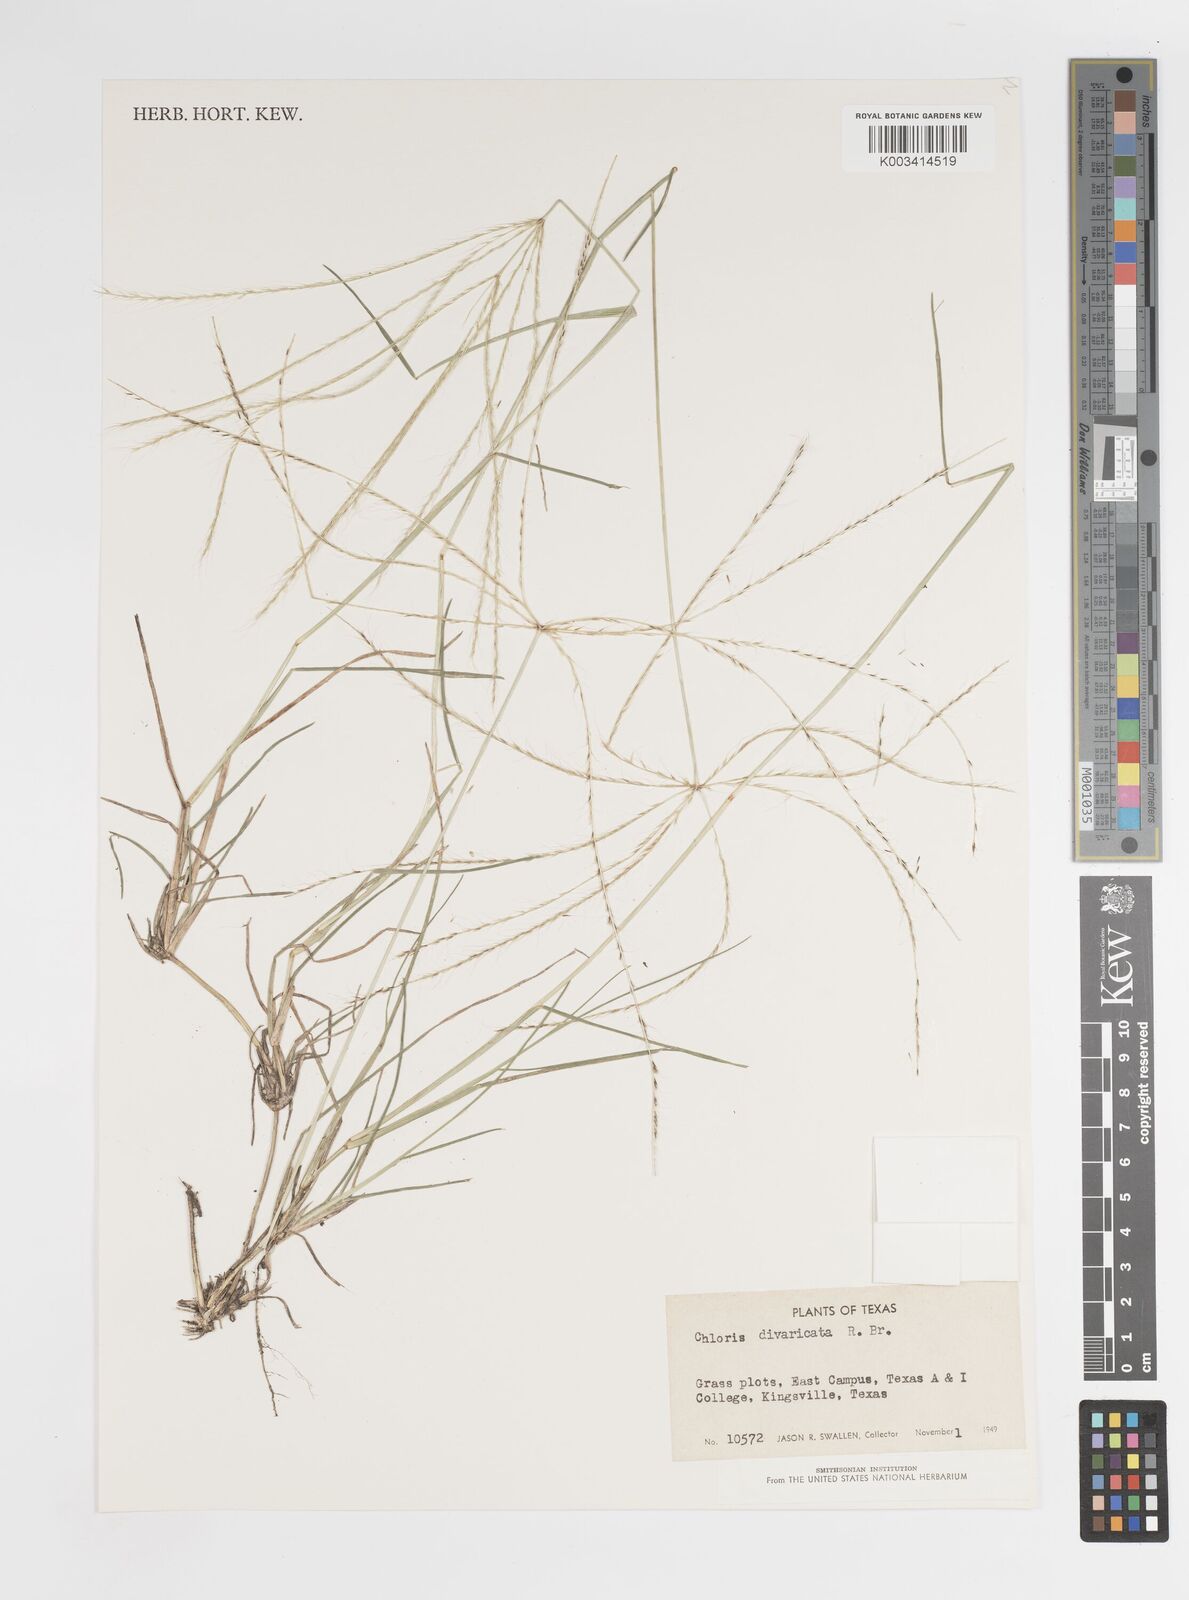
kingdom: Plantae
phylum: Tracheophyta
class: Liliopsida
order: Poales
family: Poaceae
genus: Chloris
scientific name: Chloris divaricata
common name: Spreading windmill grass
